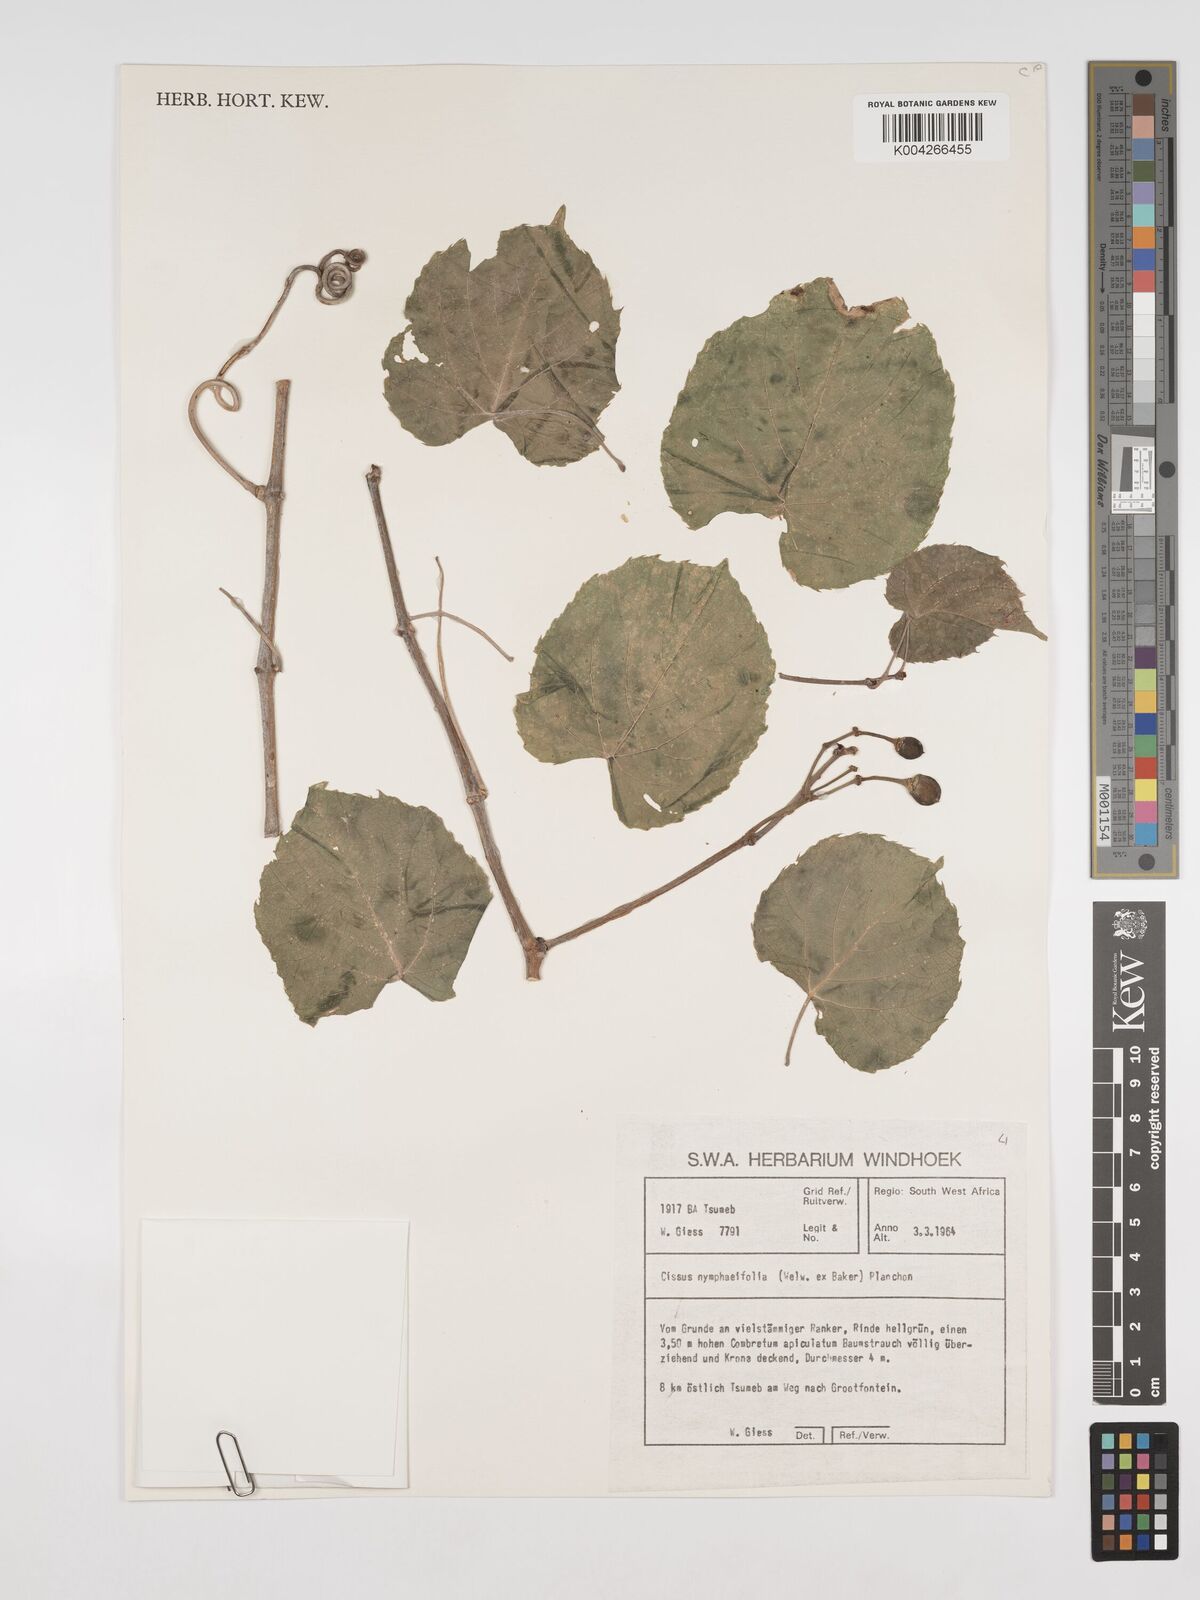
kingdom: Plantae
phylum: Tracheophyta
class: Magnoliopsida
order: Vitales
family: Vitaceae
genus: Cissus
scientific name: Cissus nymphaeifolia
